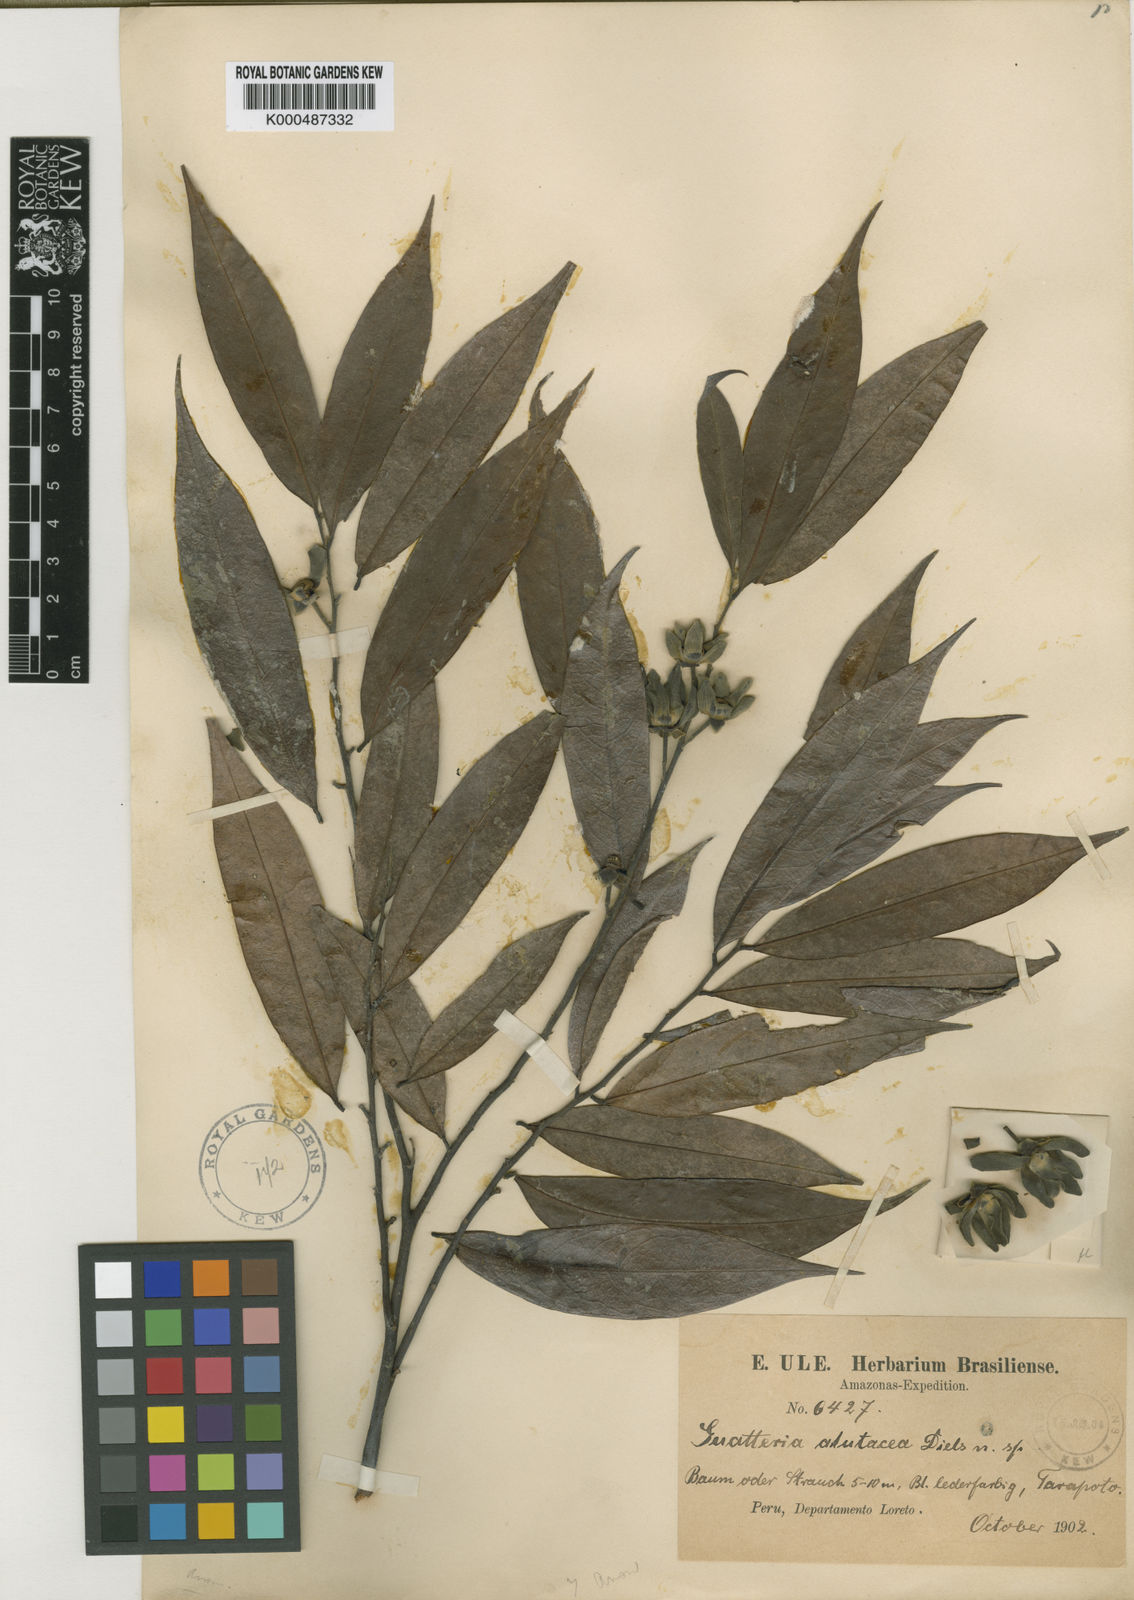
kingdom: Plantae
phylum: Tracheophyta
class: Magnoliopsida
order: Magnoliales
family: Annonaceae
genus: Guatteria
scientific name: Guatteria alutacea
